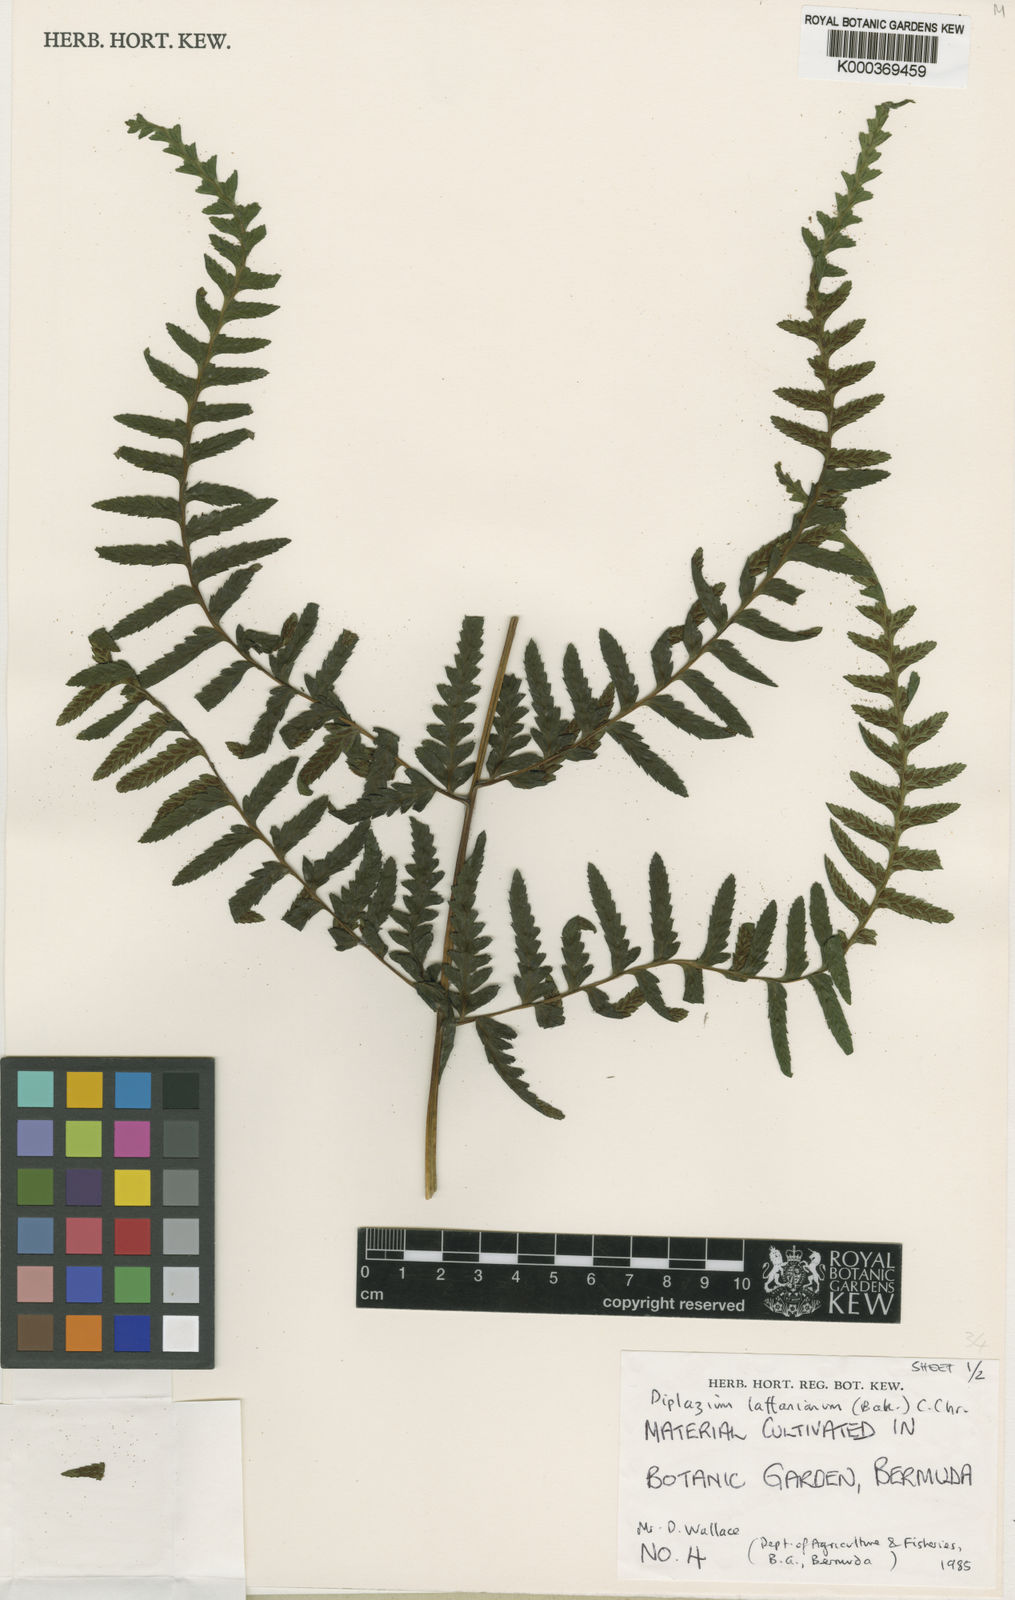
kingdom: Plantae
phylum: Tracheophyta
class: Polypodiopsida
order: Polypodiales
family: Athyriaceae
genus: Diplazium
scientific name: Diplazium laffanianum
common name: Governor laffan's fern
